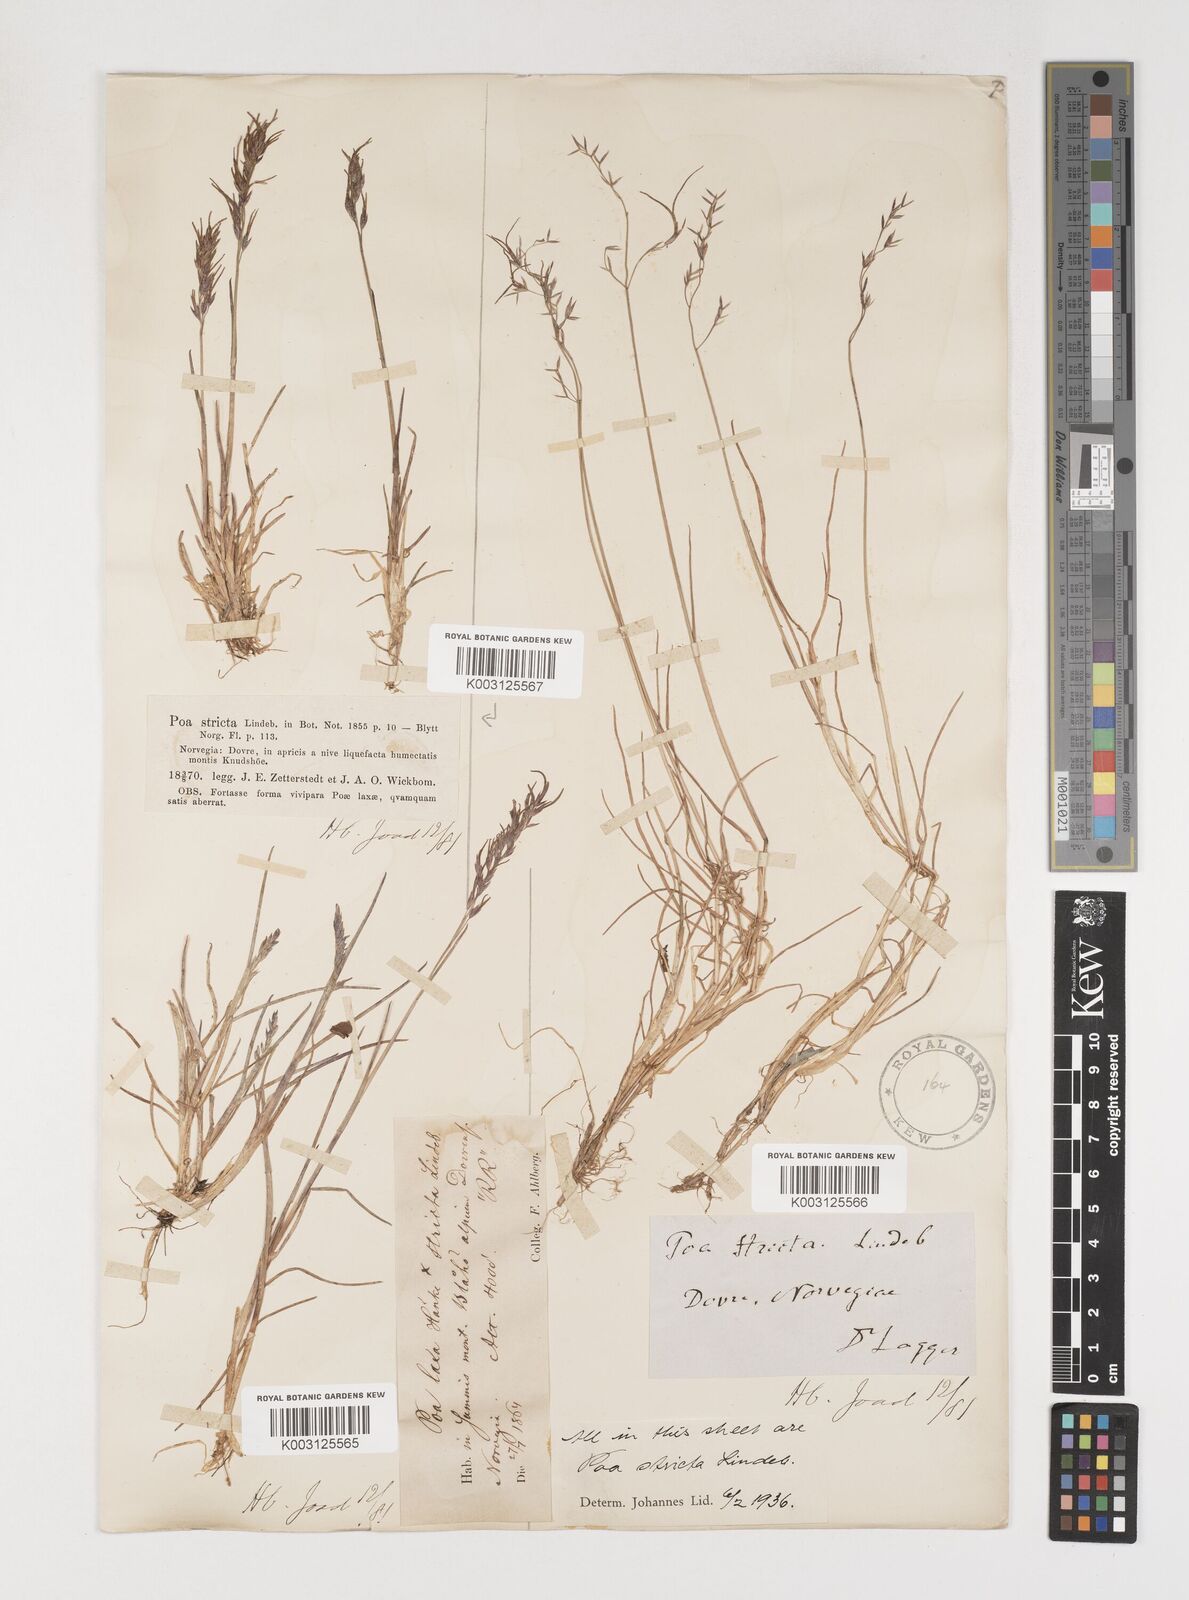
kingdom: Plantae
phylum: Tracheophyta
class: Liliopsida
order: Poales
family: Poaceae
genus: Poa
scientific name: Poa arctica
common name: Arctic bluegrass
